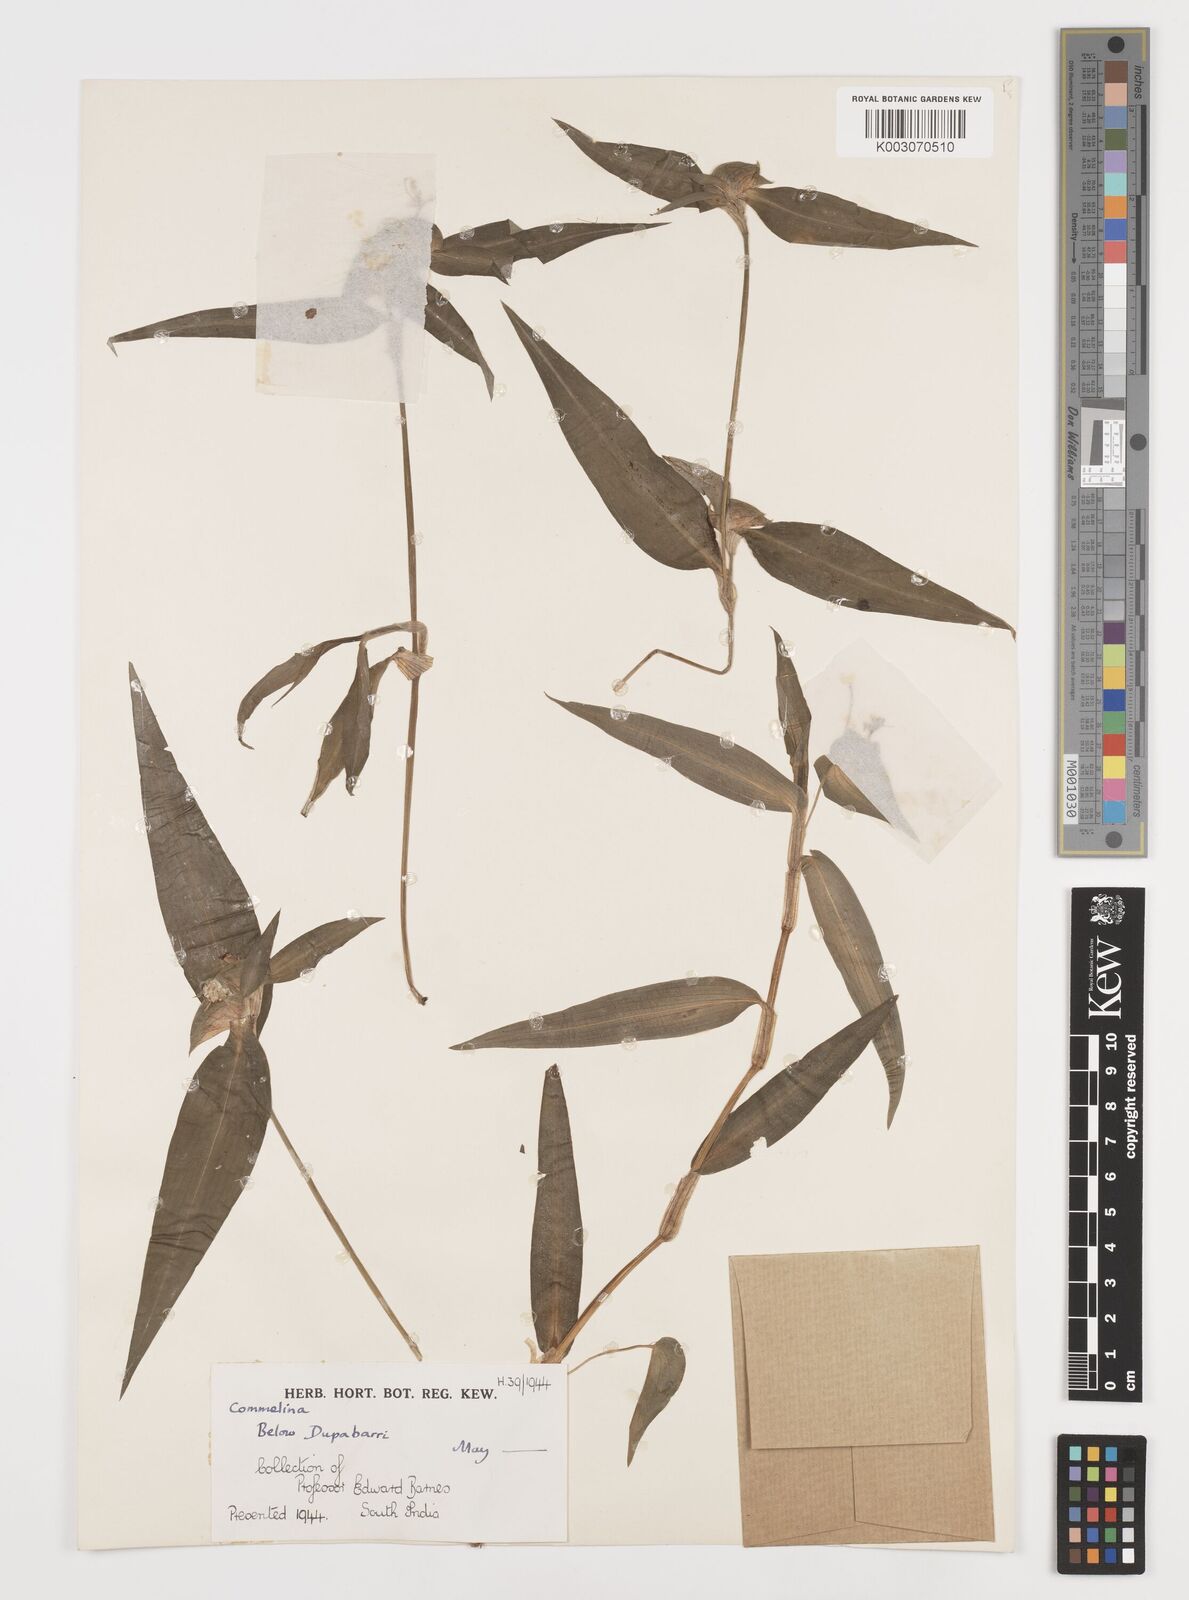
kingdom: Plantae
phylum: Tracheophyta
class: Liliopsida
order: Commelinales
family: Commelinaceae
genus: Commelina
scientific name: Commelina
